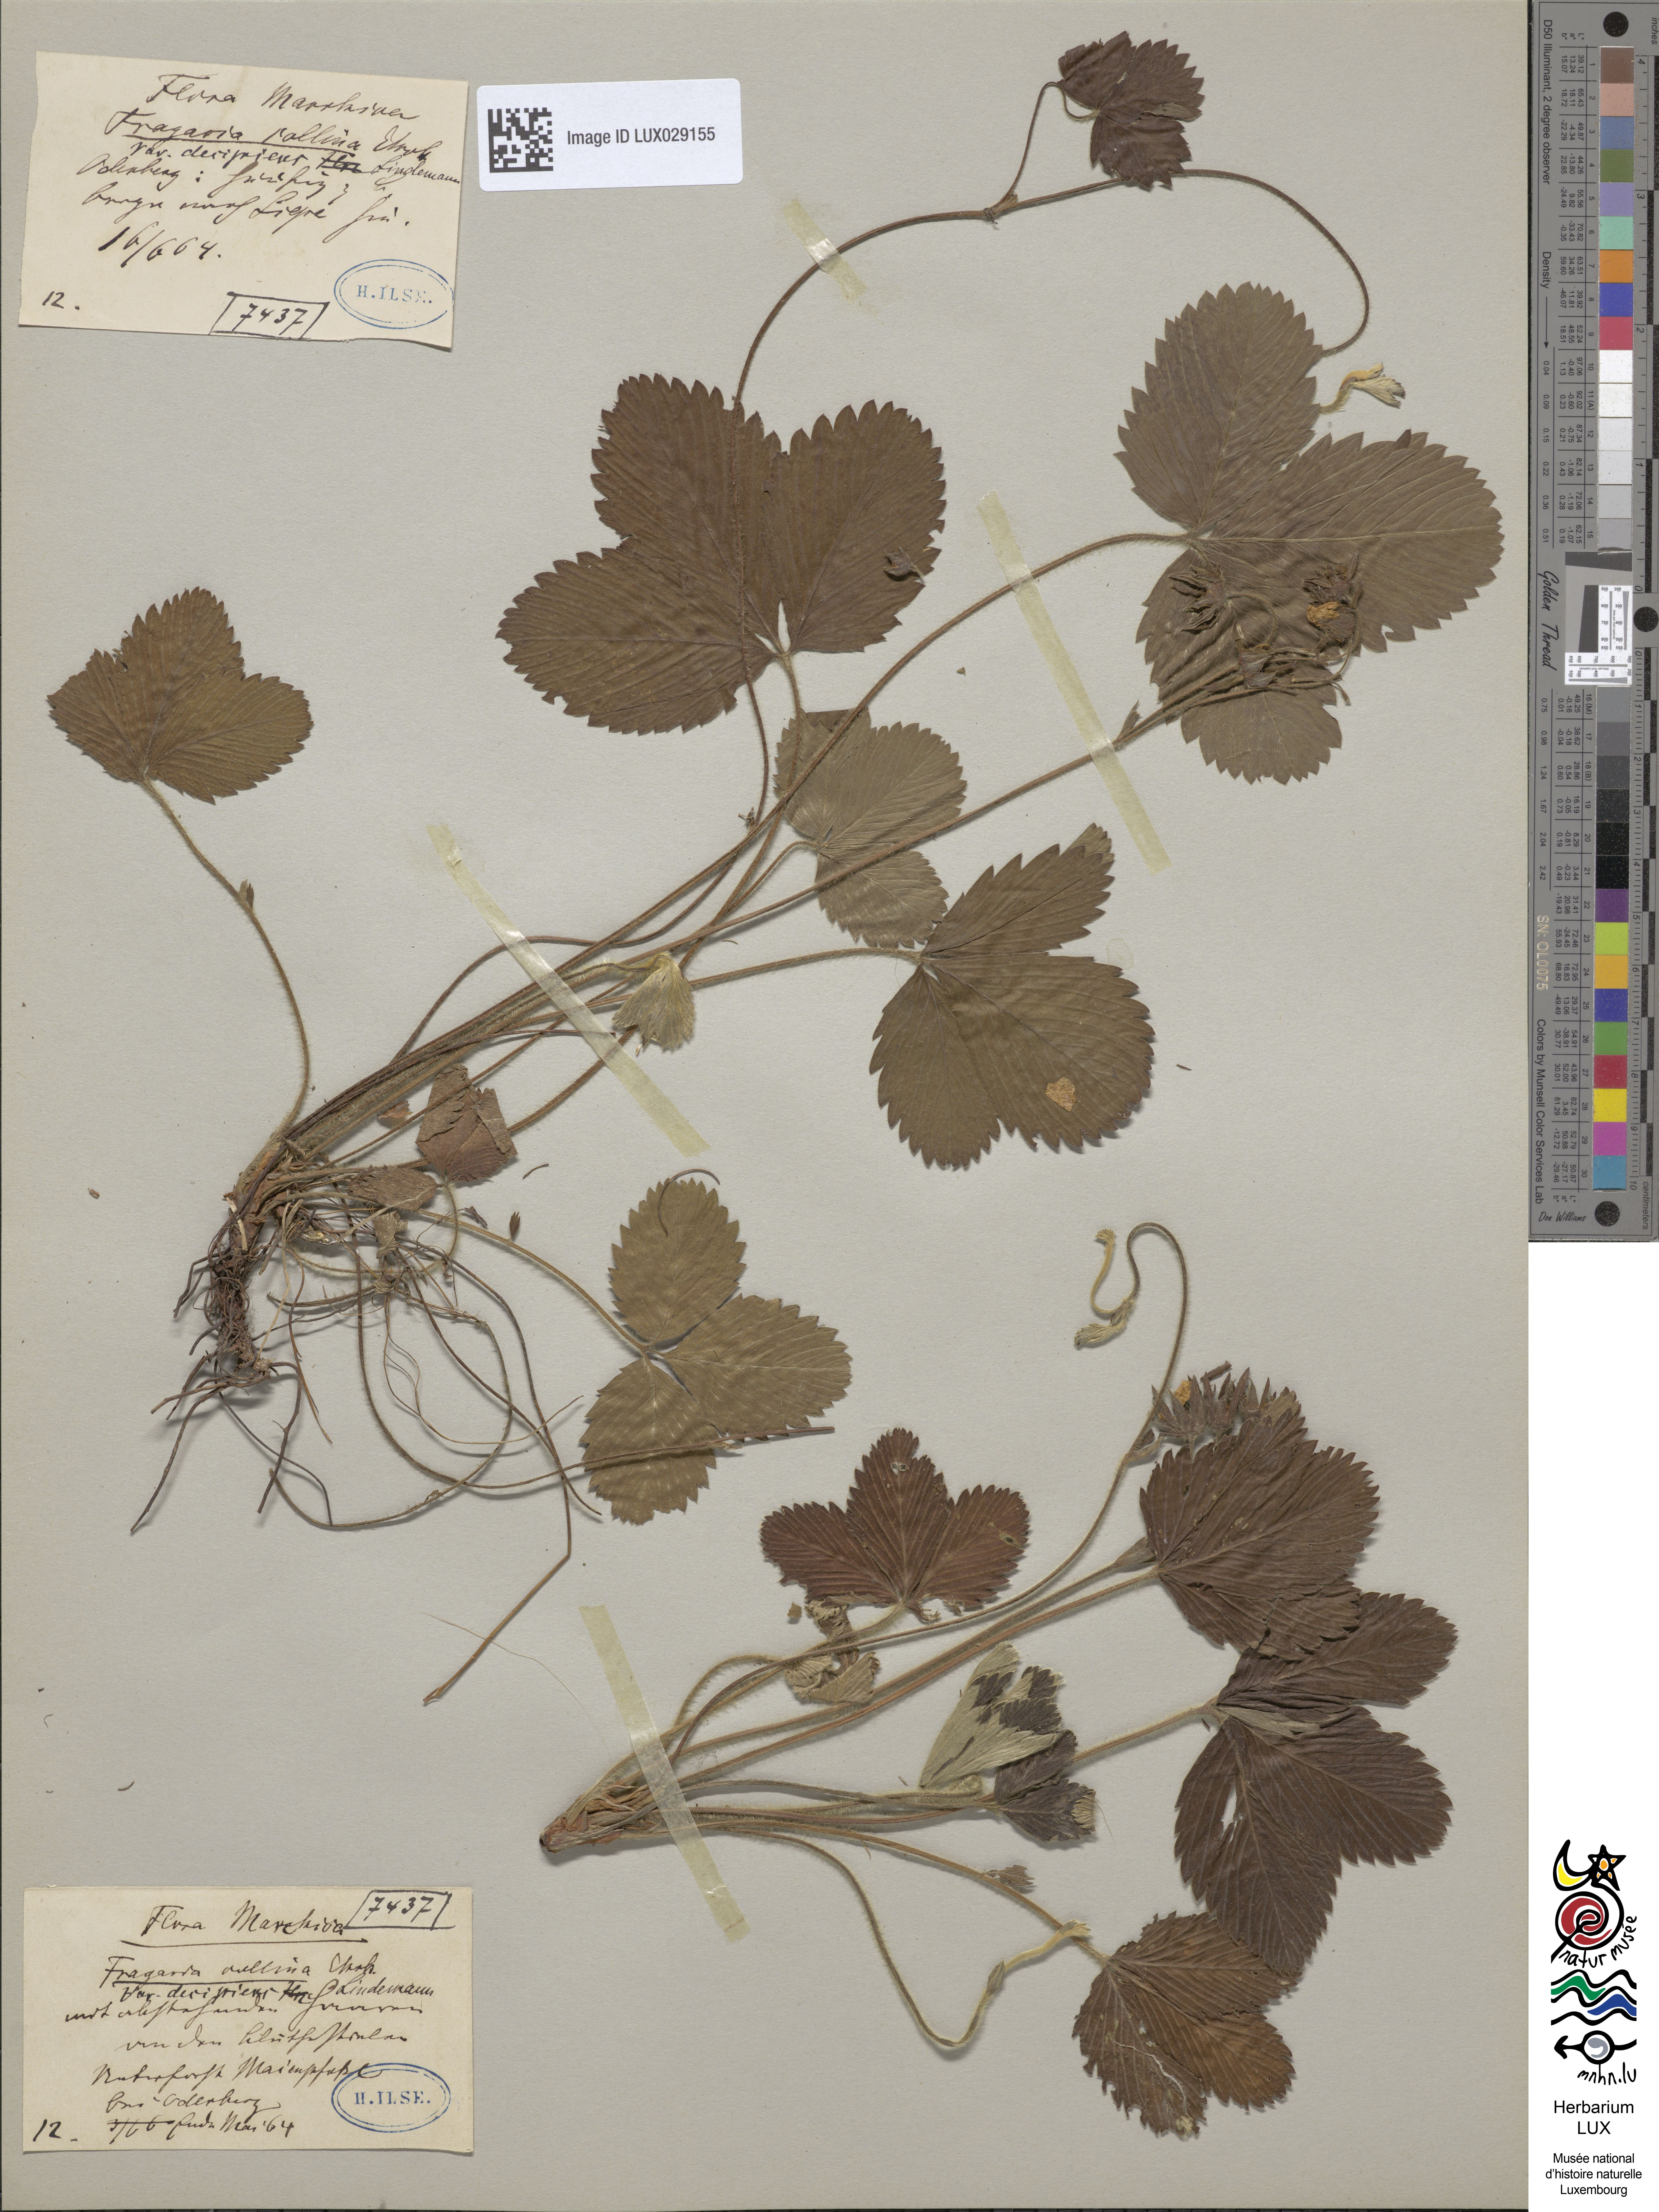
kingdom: Plantae
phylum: Tracheophyta
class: Magnoliopsida
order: Rosales
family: Rosaceae
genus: Fragaria
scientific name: Fragaria viridis
